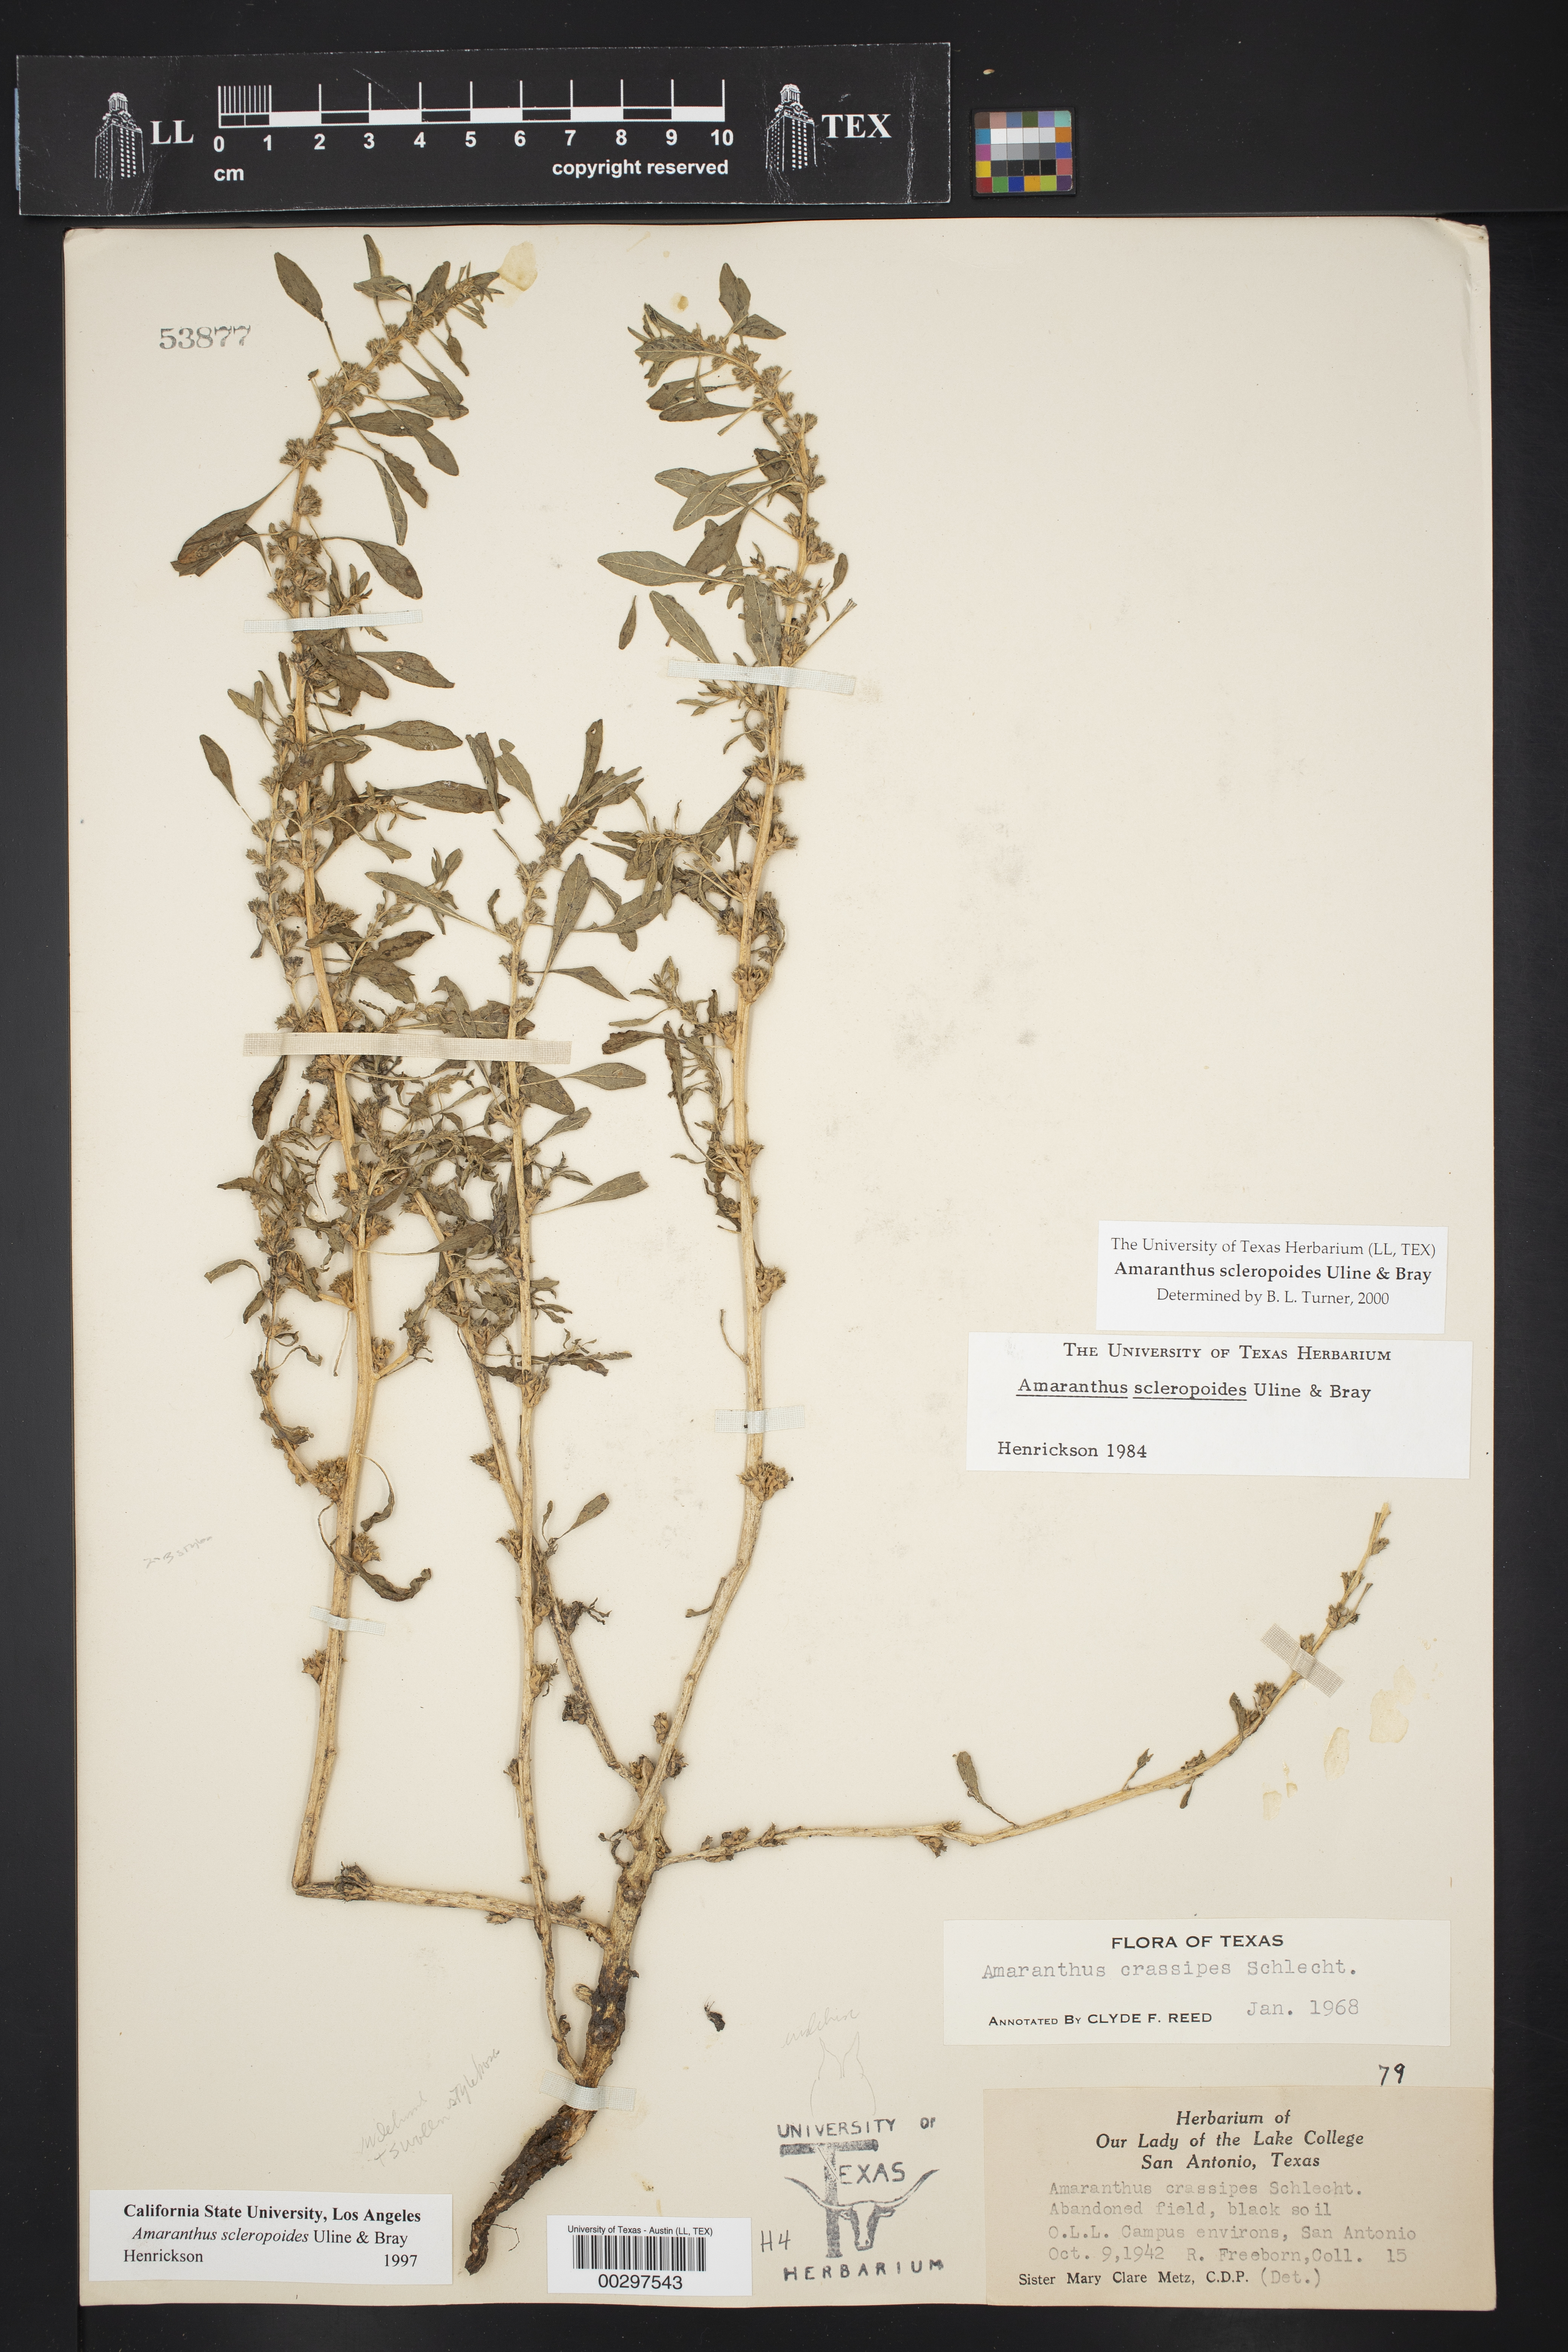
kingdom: Plantae
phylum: Tracheophyta
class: Magnoliopsida
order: Caryophyllales
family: Amaranthaceae
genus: Amaranthus
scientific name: Amaranthus scleropoides
